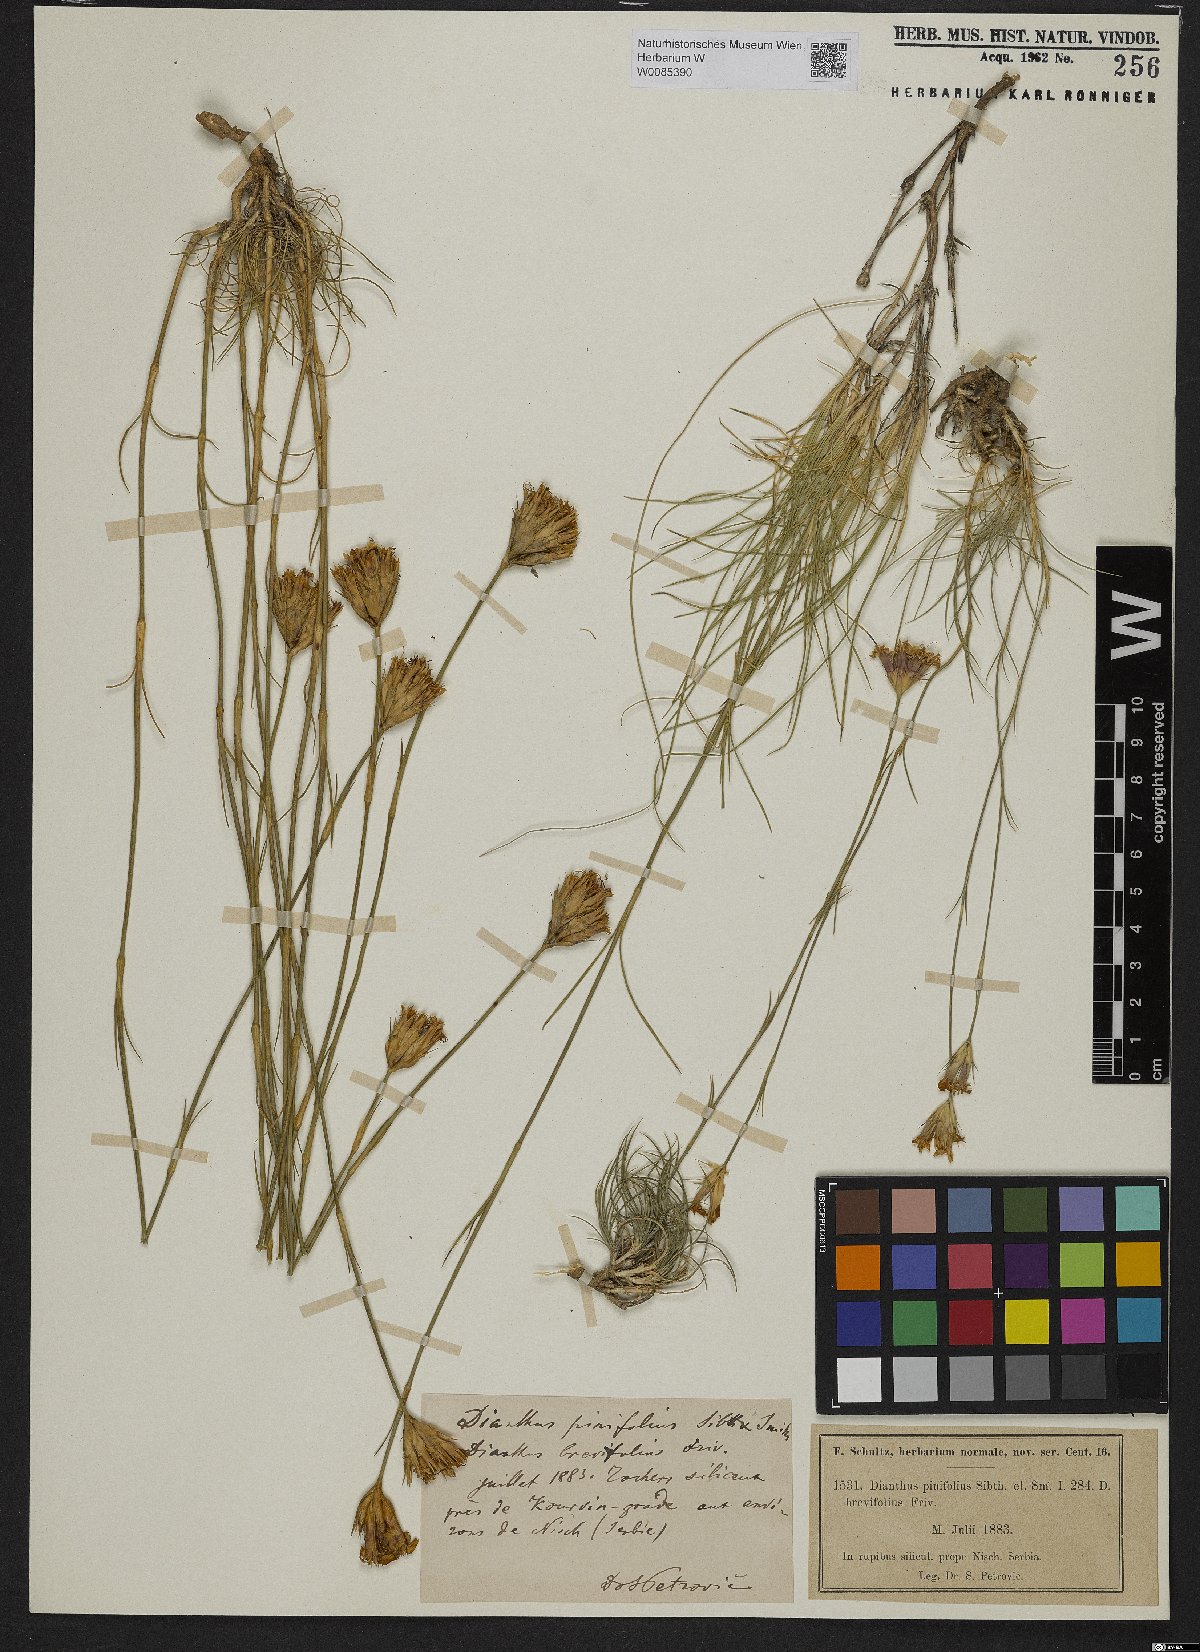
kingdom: Plantae
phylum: Tracheophyta
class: Magnoliopsida
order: Caryophyllales
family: Caryophyllaceae
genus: Dianthus
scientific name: Dianthus pinifolius
